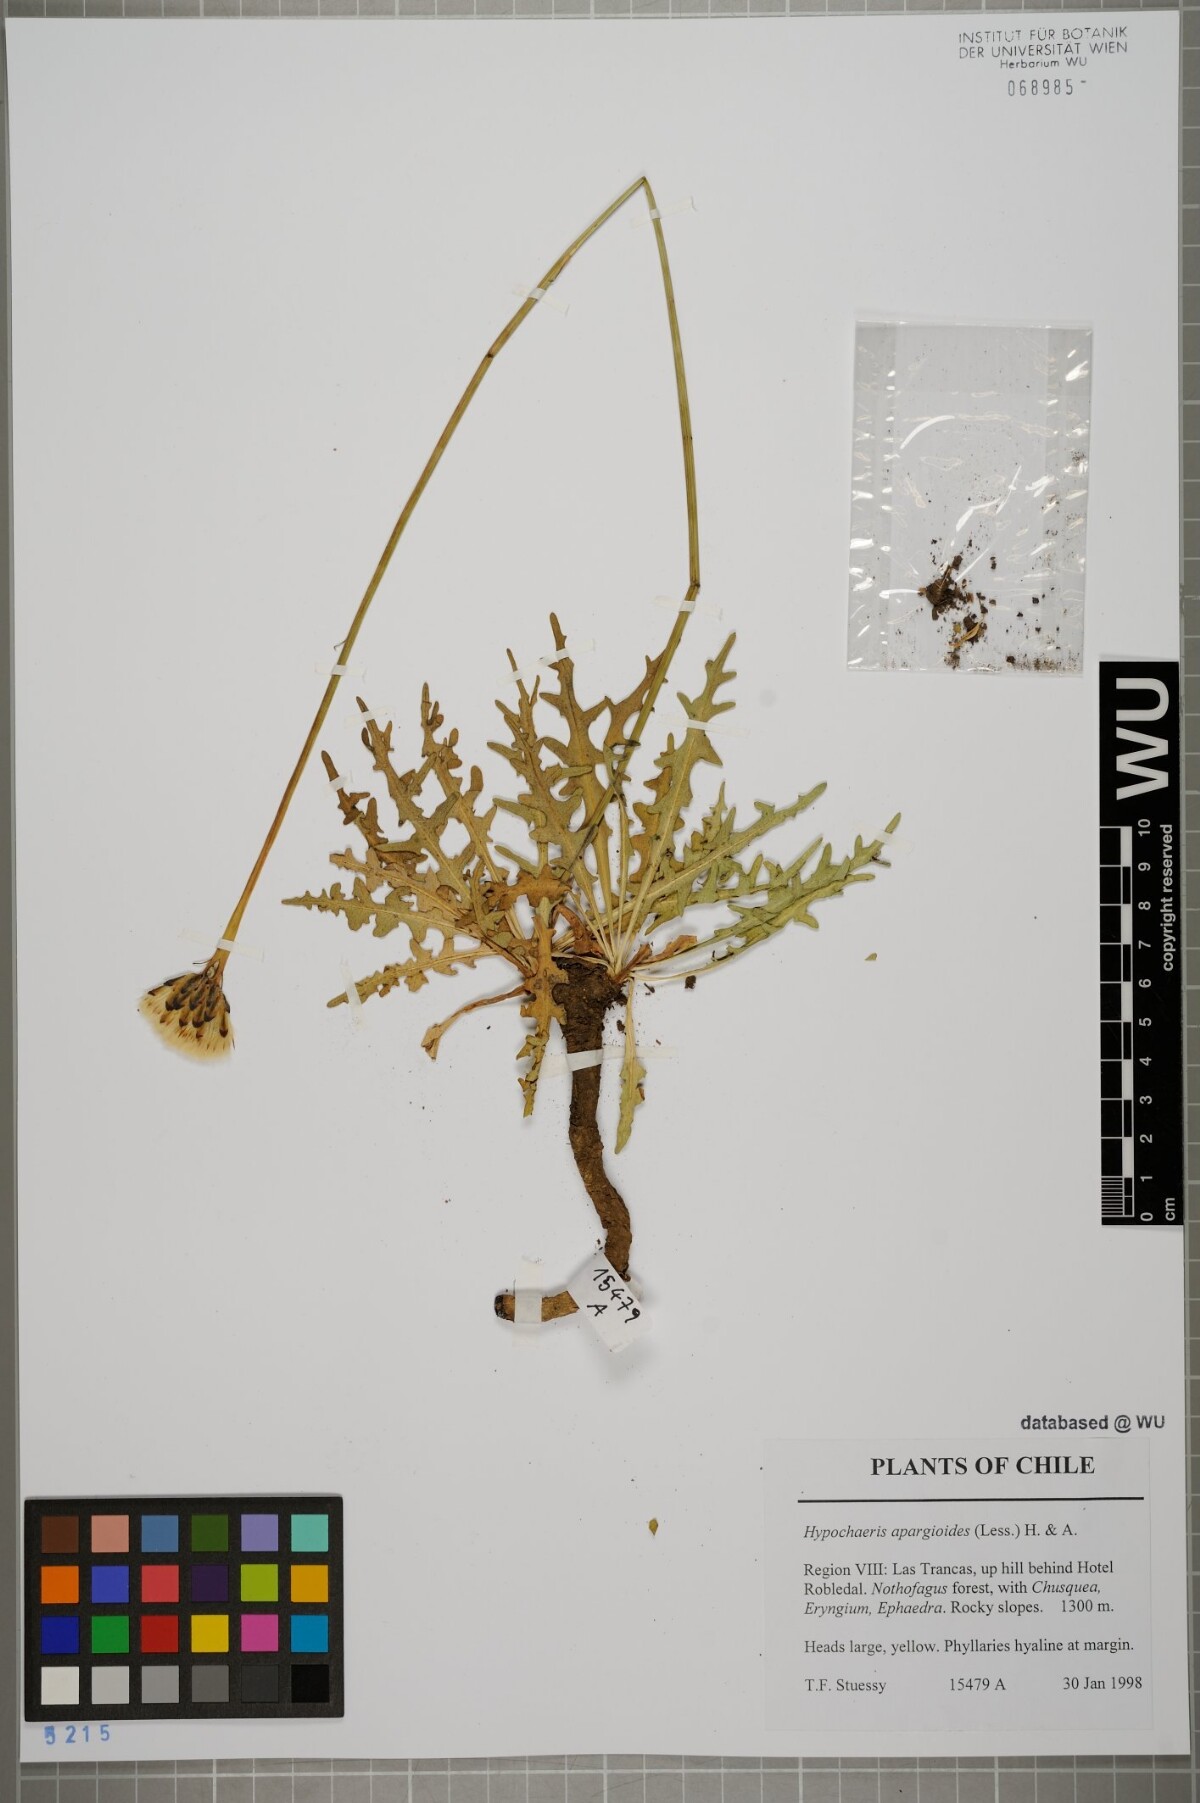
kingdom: Plantae
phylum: Tracheophyta
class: Magnoliopsida
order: Asterales
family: Asteraceae
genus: Hypochaeris
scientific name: Hypochaeris apargioides
